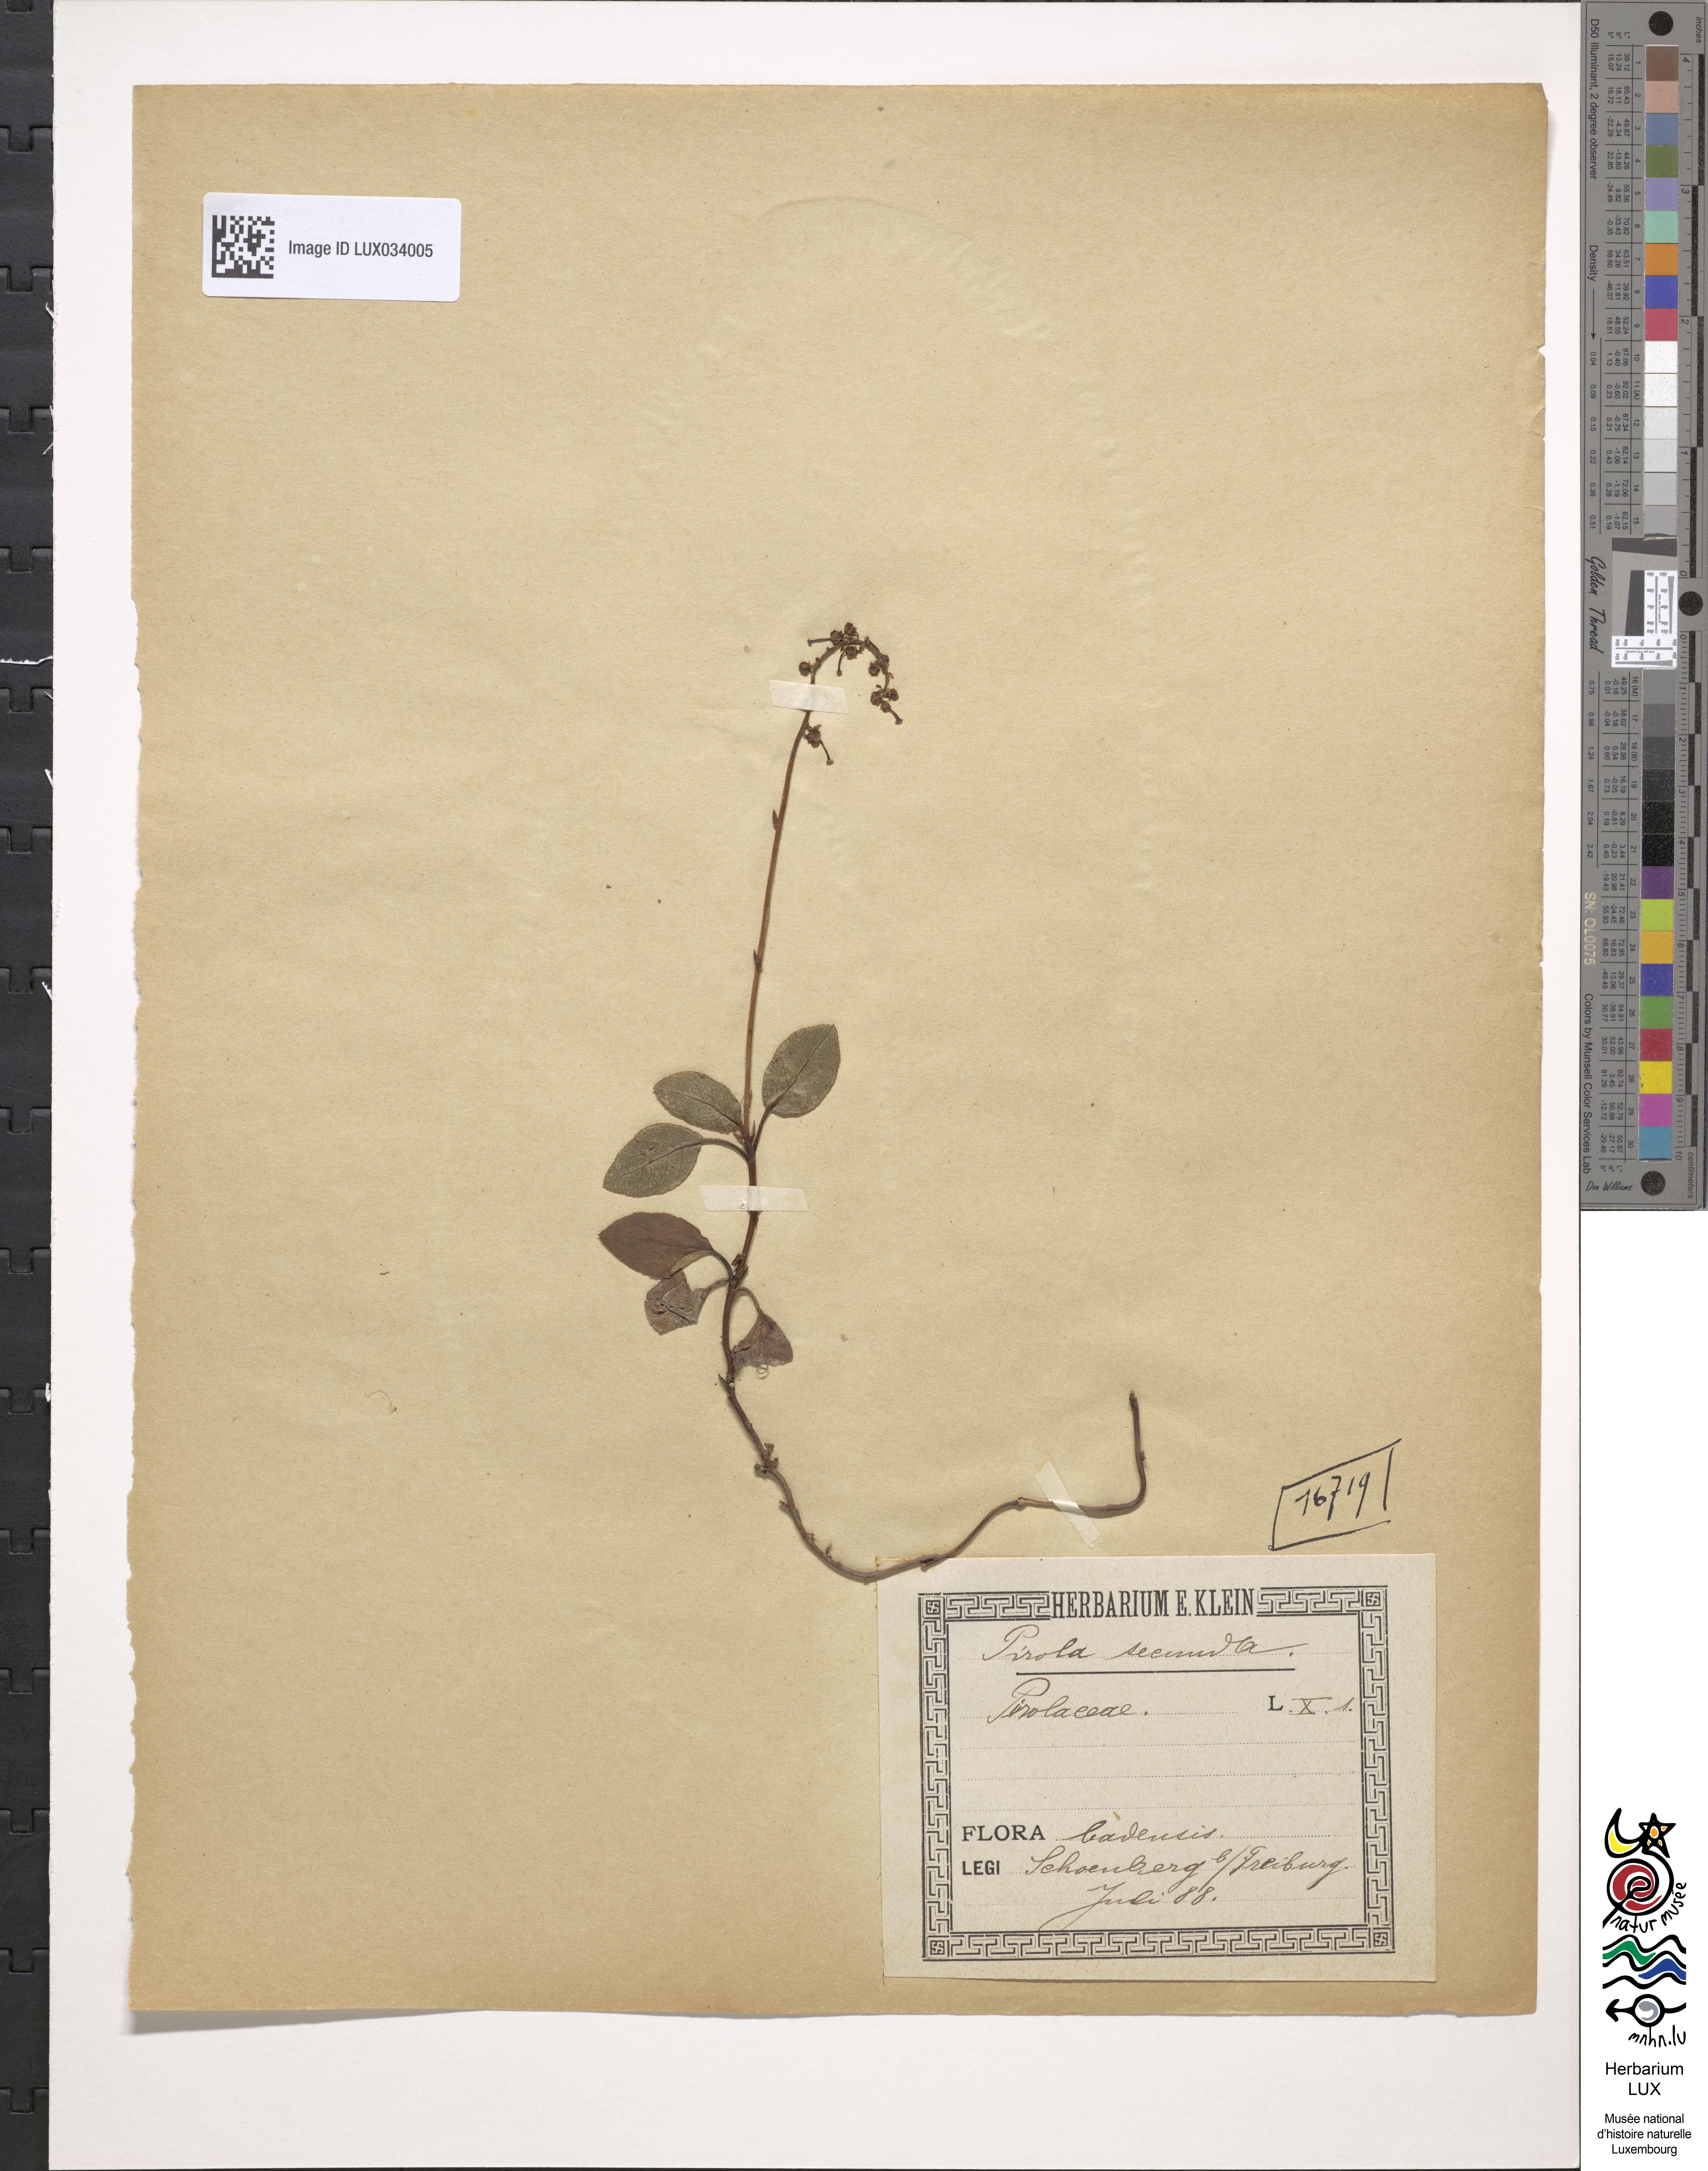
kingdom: Plantae
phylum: Tracheophyta
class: Magnoliopsida
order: Ericales
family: Ericaceae
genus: Orthilia
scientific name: Orthilia secunda
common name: One-sided orthilia
